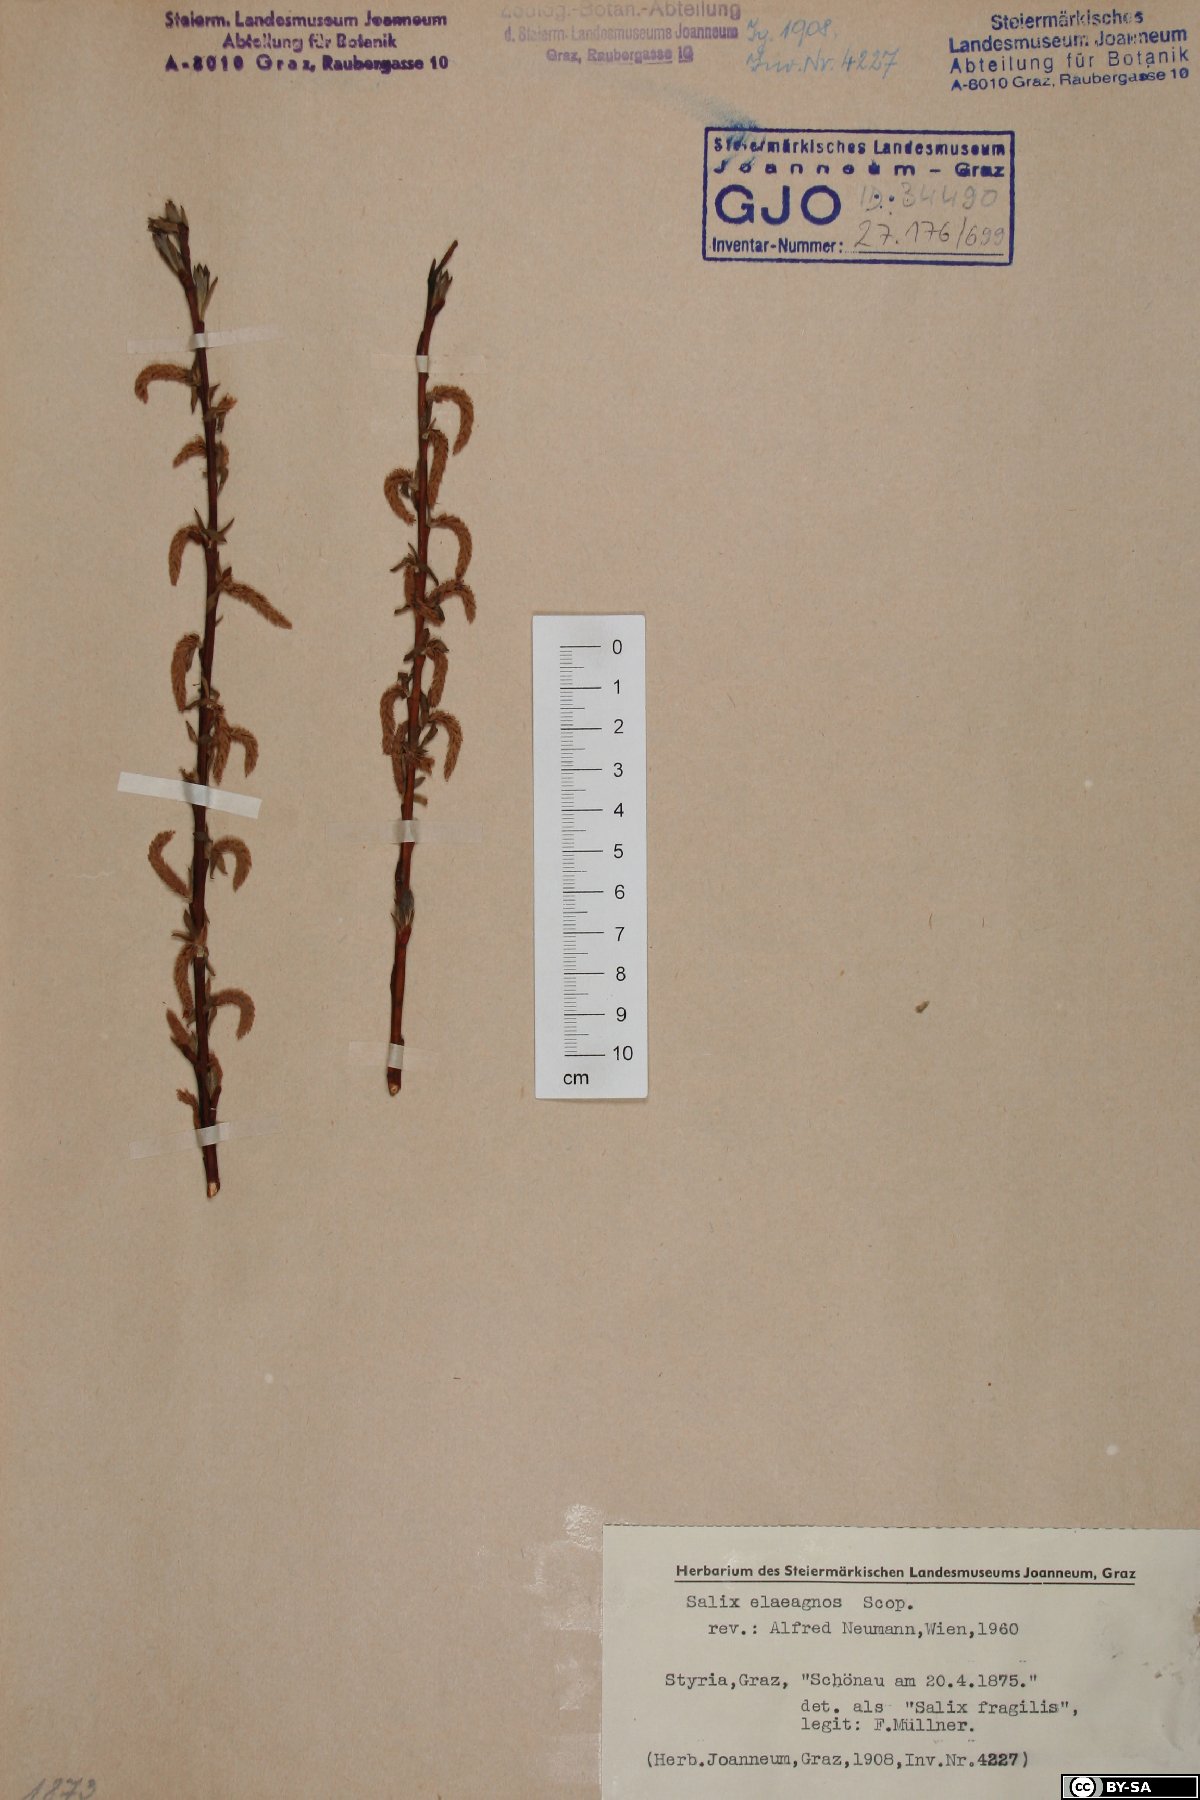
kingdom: Plantae
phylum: Tracheophyta
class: Magnoliopsida
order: Malpighiales
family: Salicaceae
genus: Salix
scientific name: Salix eleagnos
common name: Elaeagnus willow
